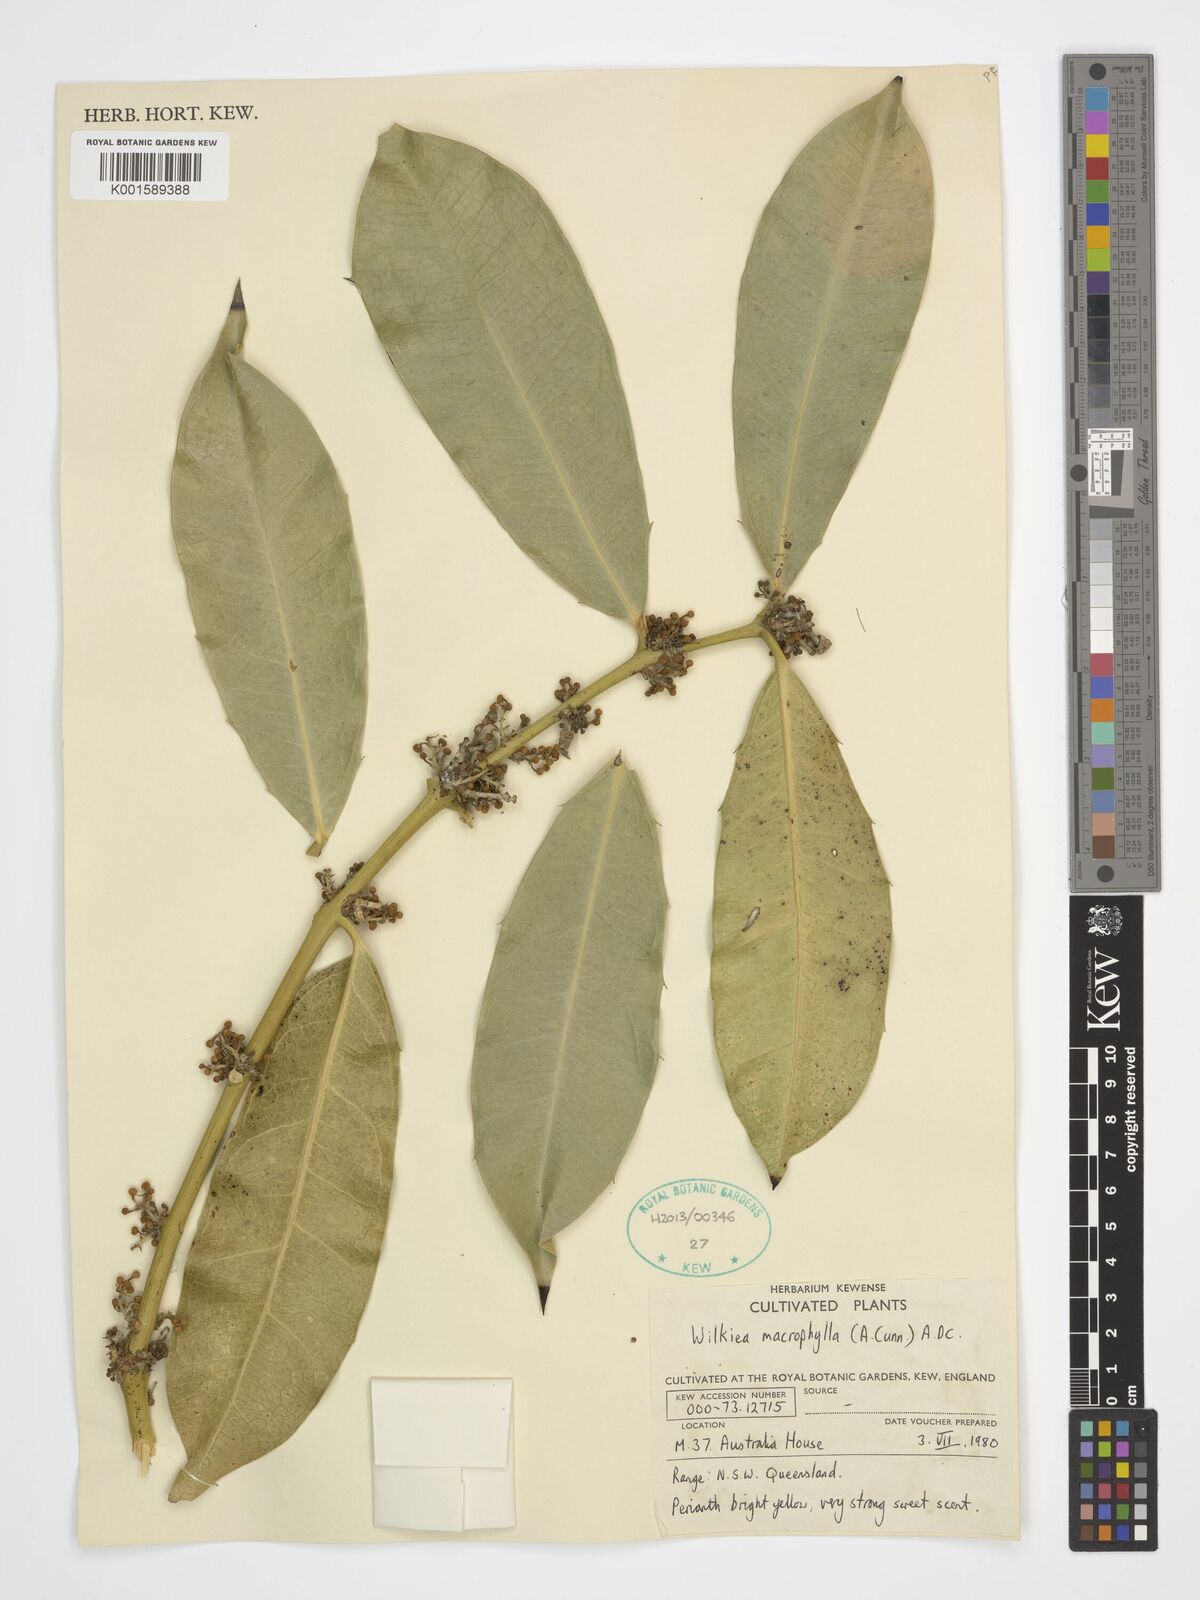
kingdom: Plantae
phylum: Tracheophyta
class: Magnoliopsida
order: Laurales
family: Monimiaceae
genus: Wilkiea
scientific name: Wilkiea macrophylla
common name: Large-leaved wilkiea
